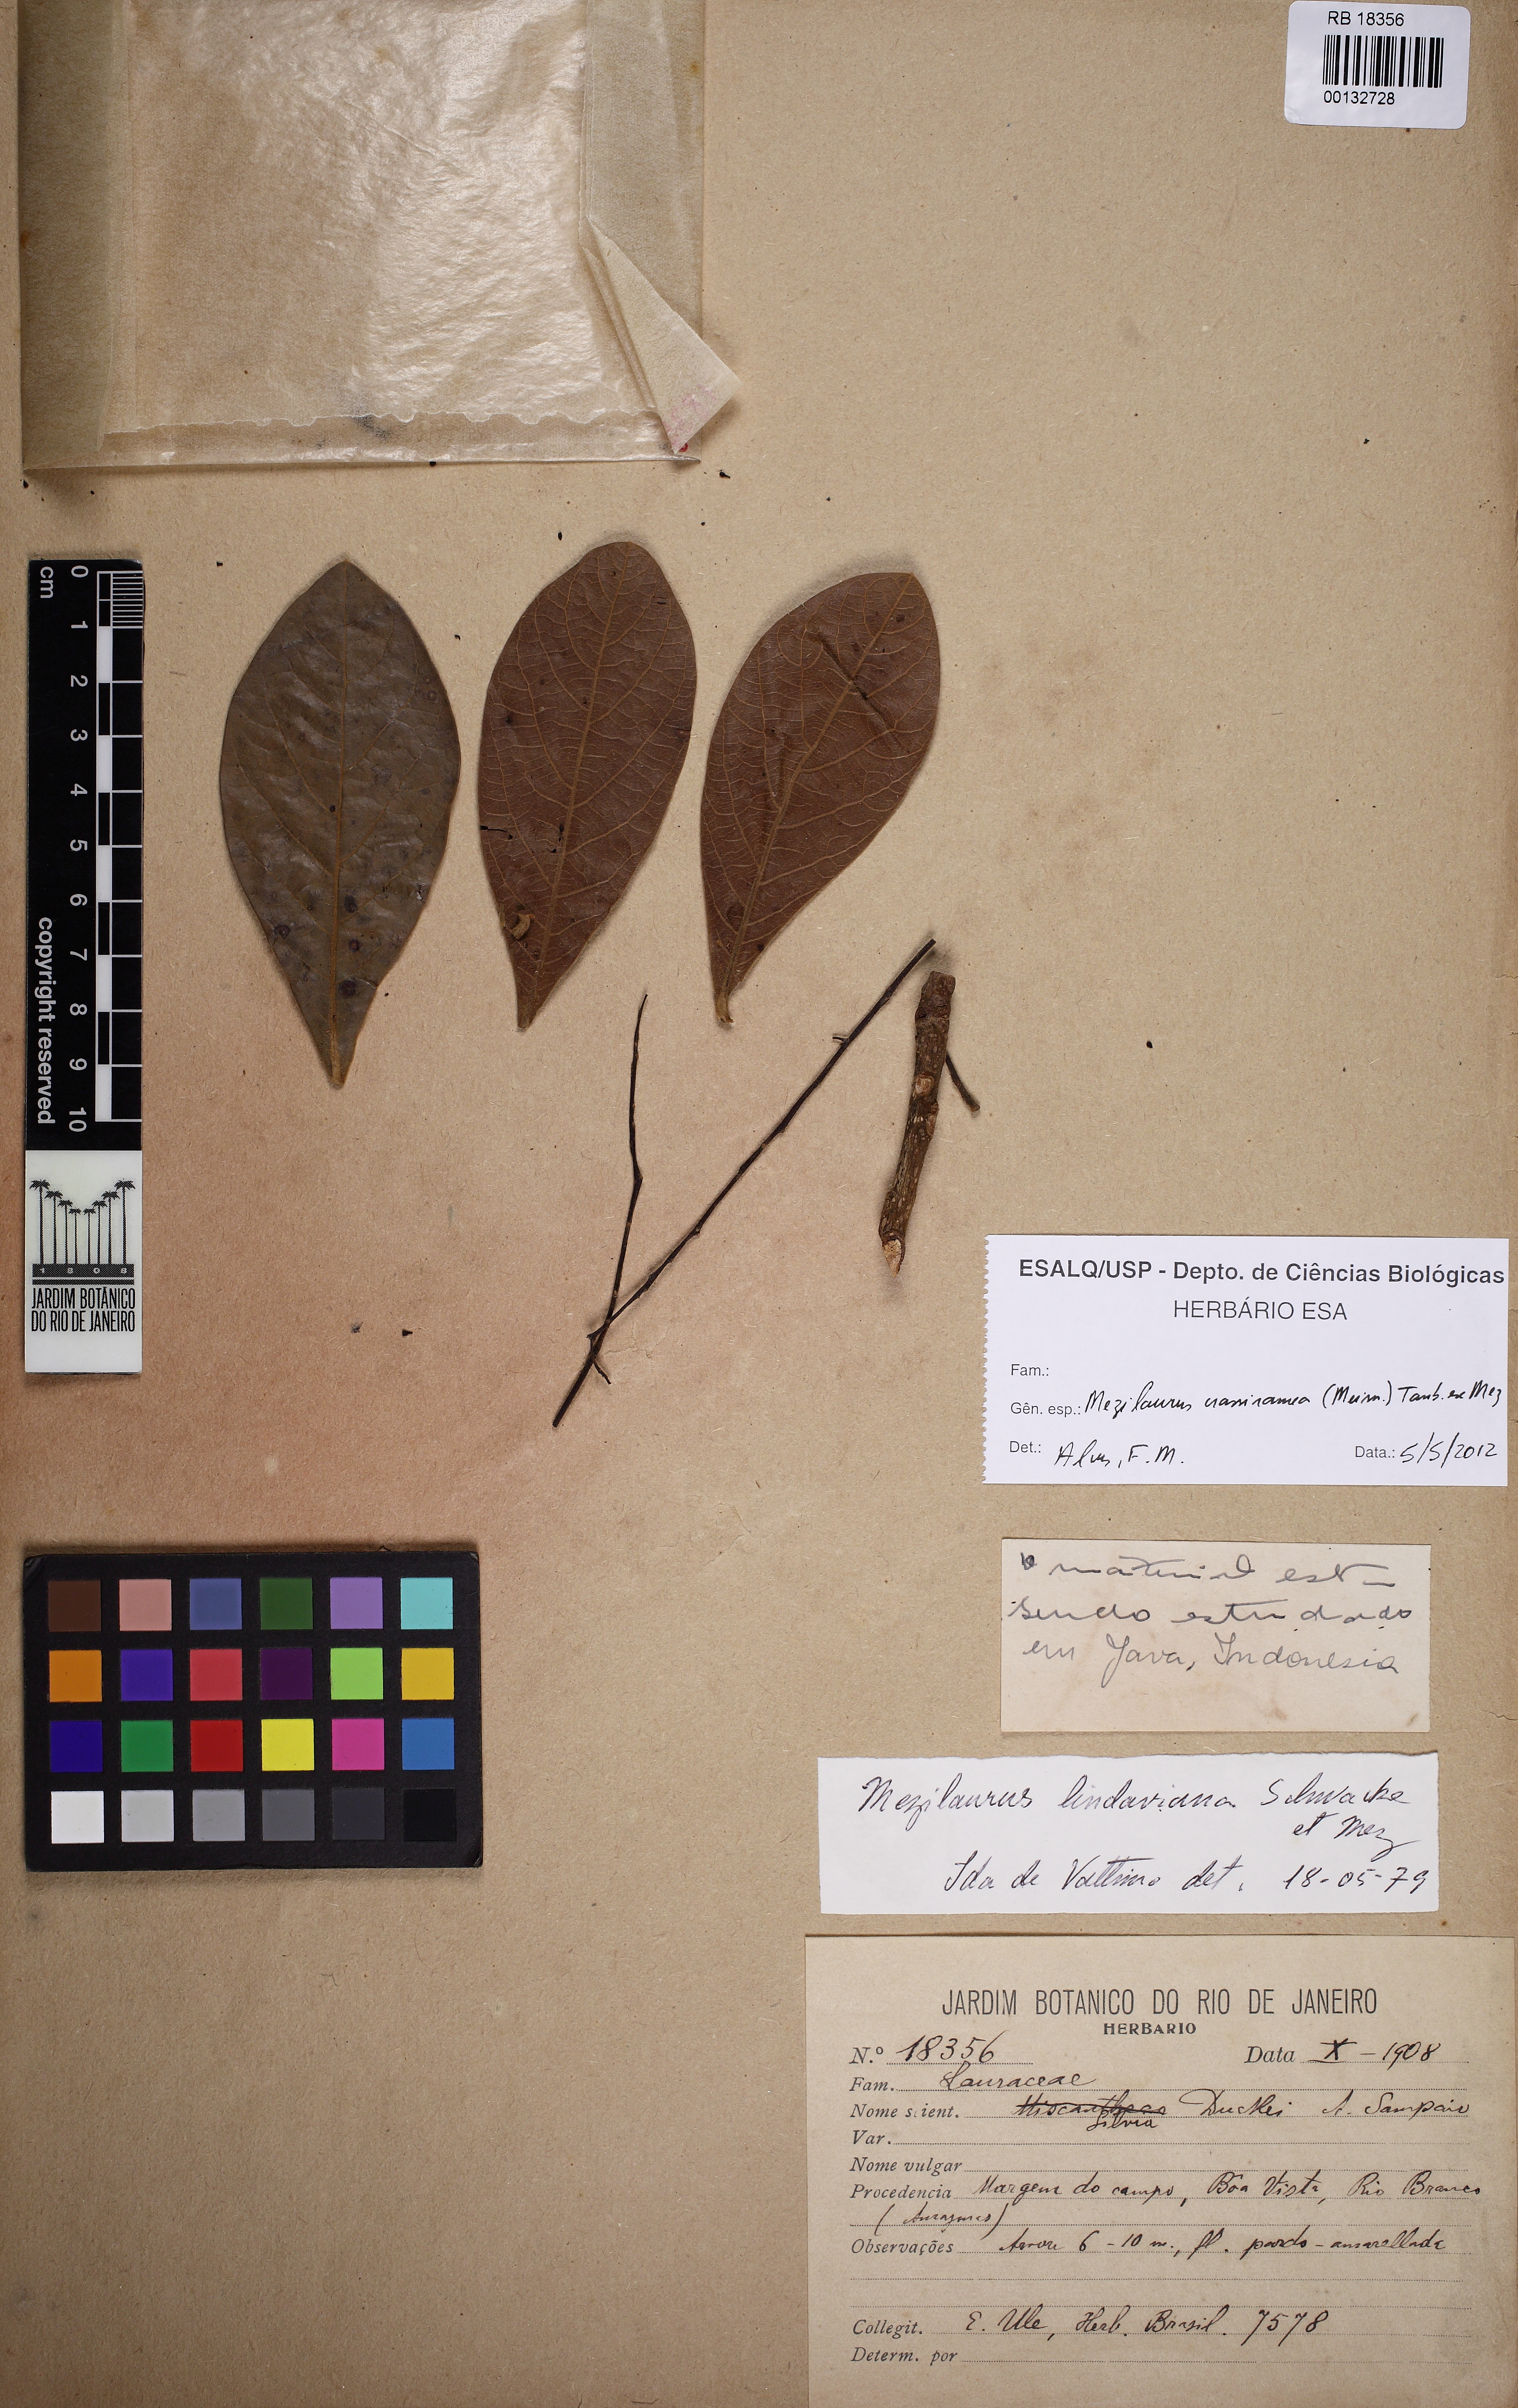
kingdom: Plantae
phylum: Tracheophyta
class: Magnoliopsida
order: Laurales
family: Lauraceae
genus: Mezilaurus
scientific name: Mezilaurus crassiramea
